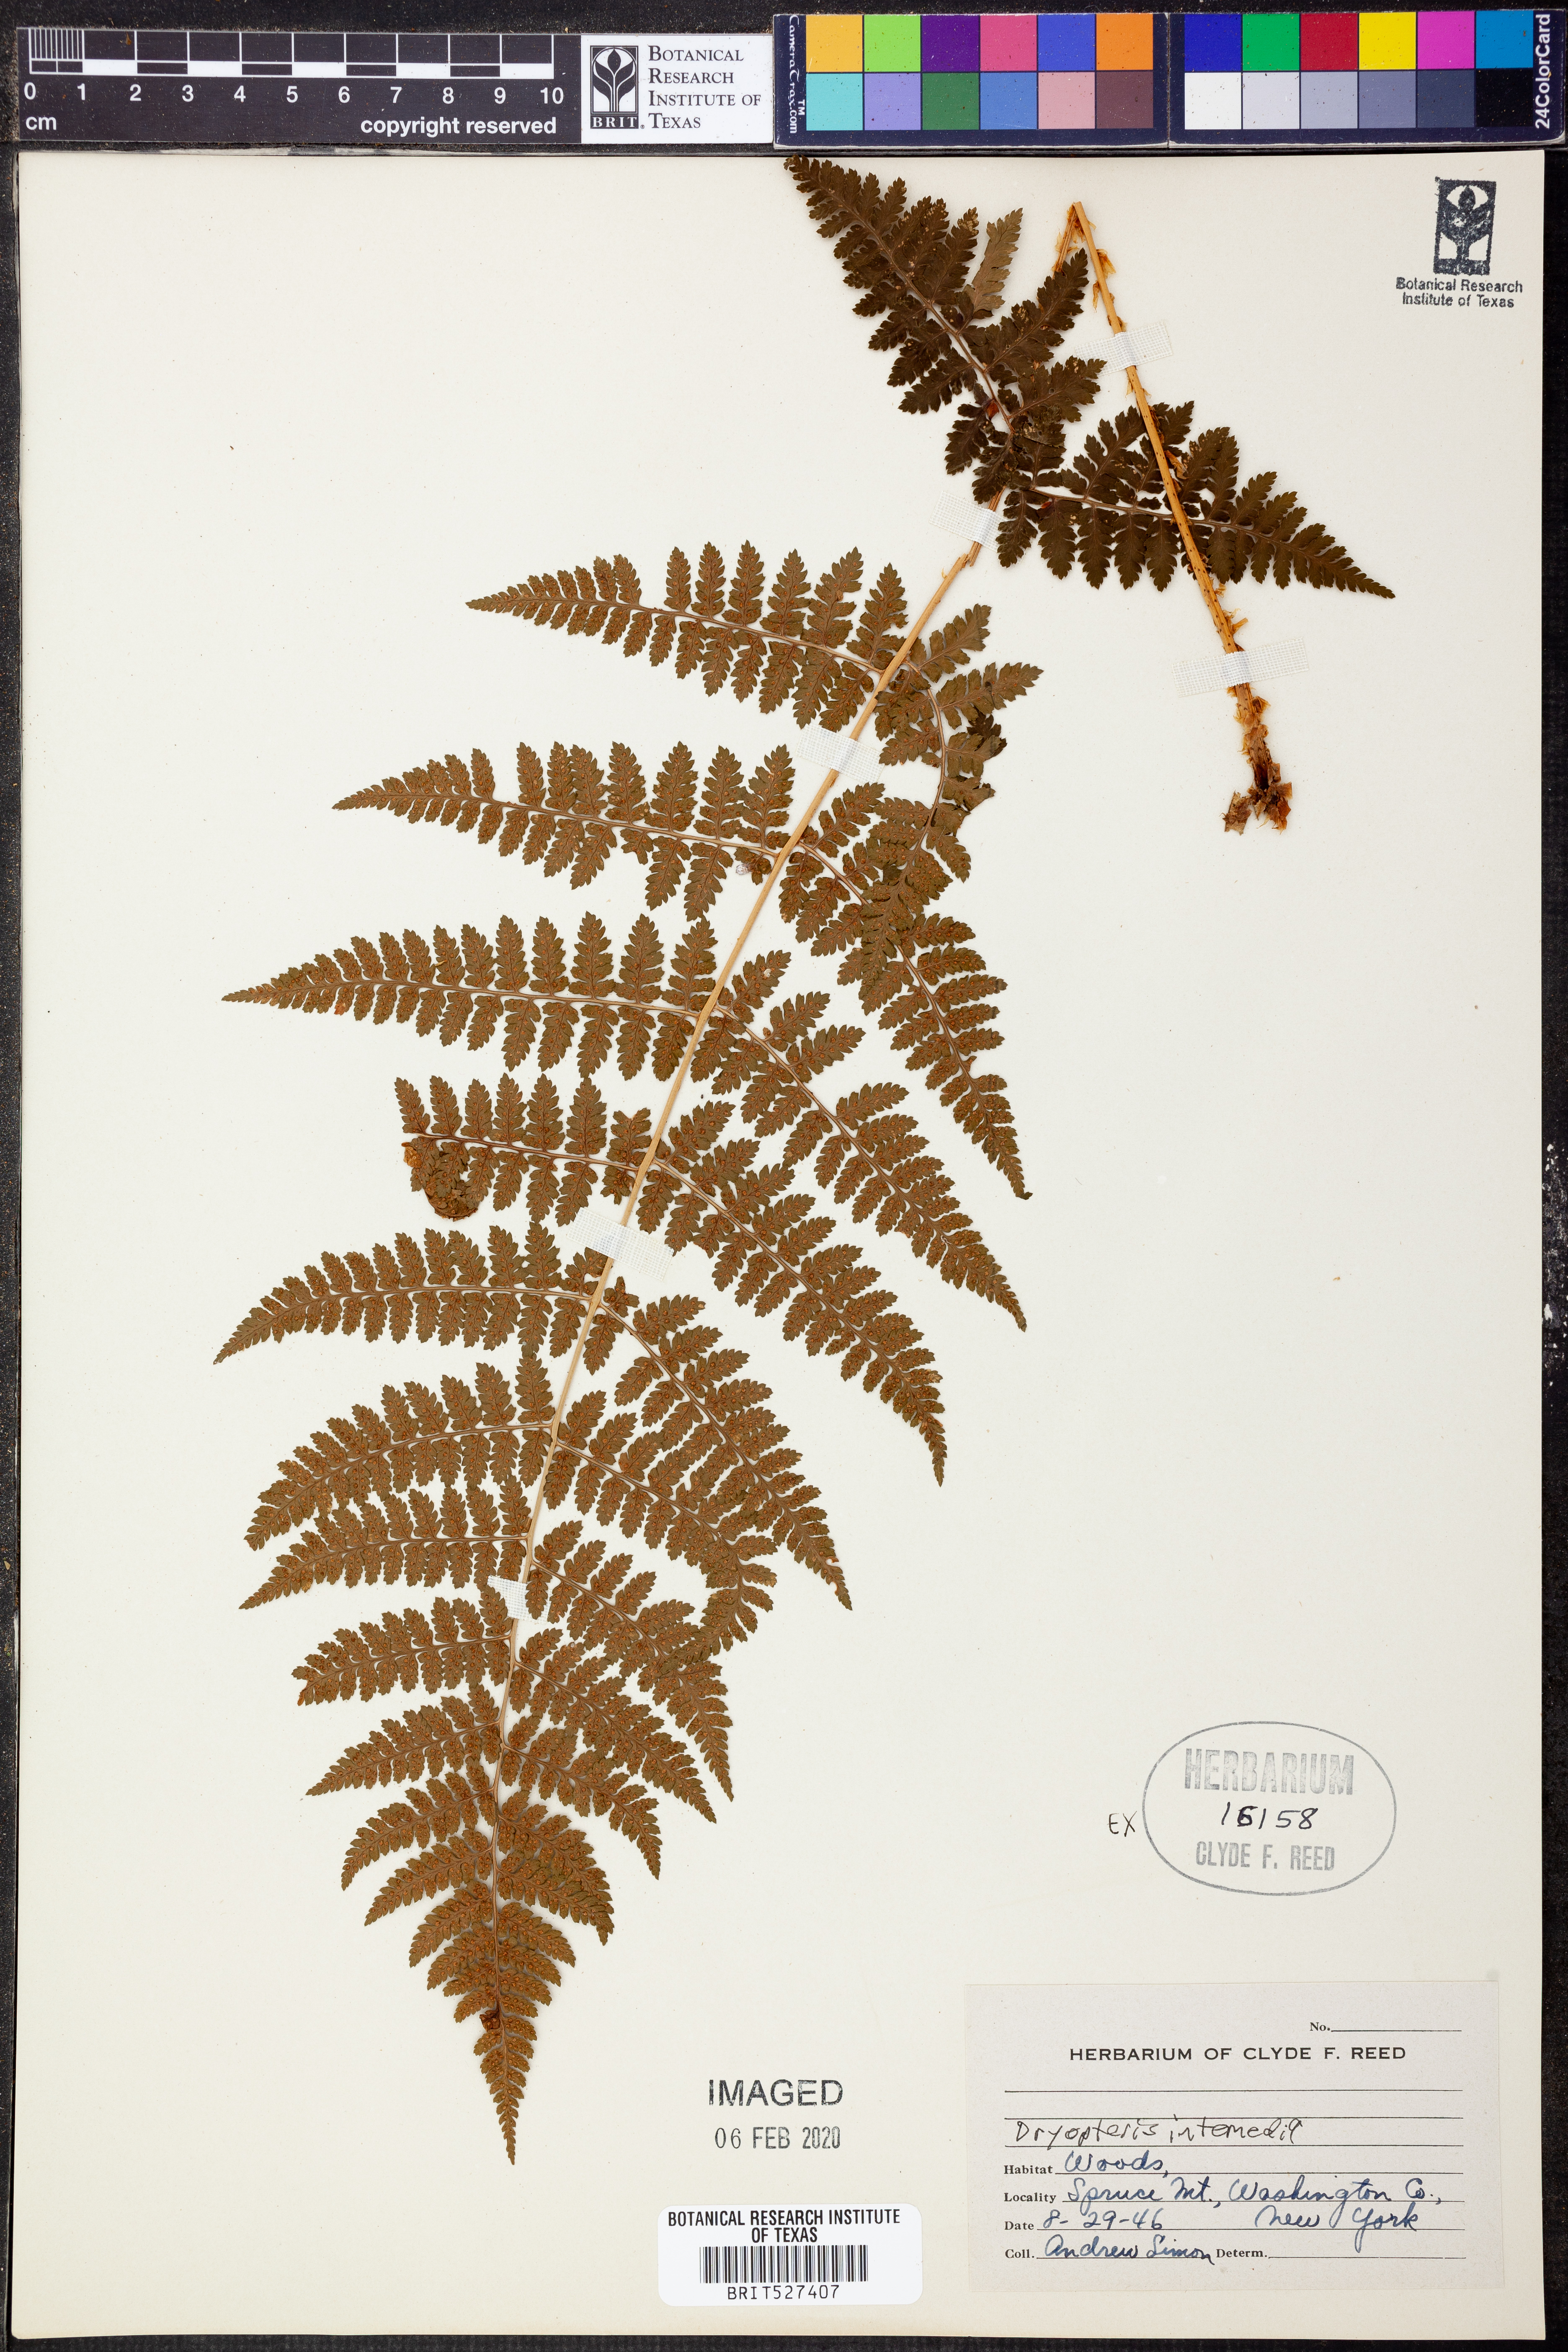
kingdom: Plantae
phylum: Tracheophyta
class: Polypodiopsida
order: Polypodiales
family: Dryopteridaceae
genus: Dryopteris
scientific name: Dryopteris intermedia
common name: Evergreen wood fern
